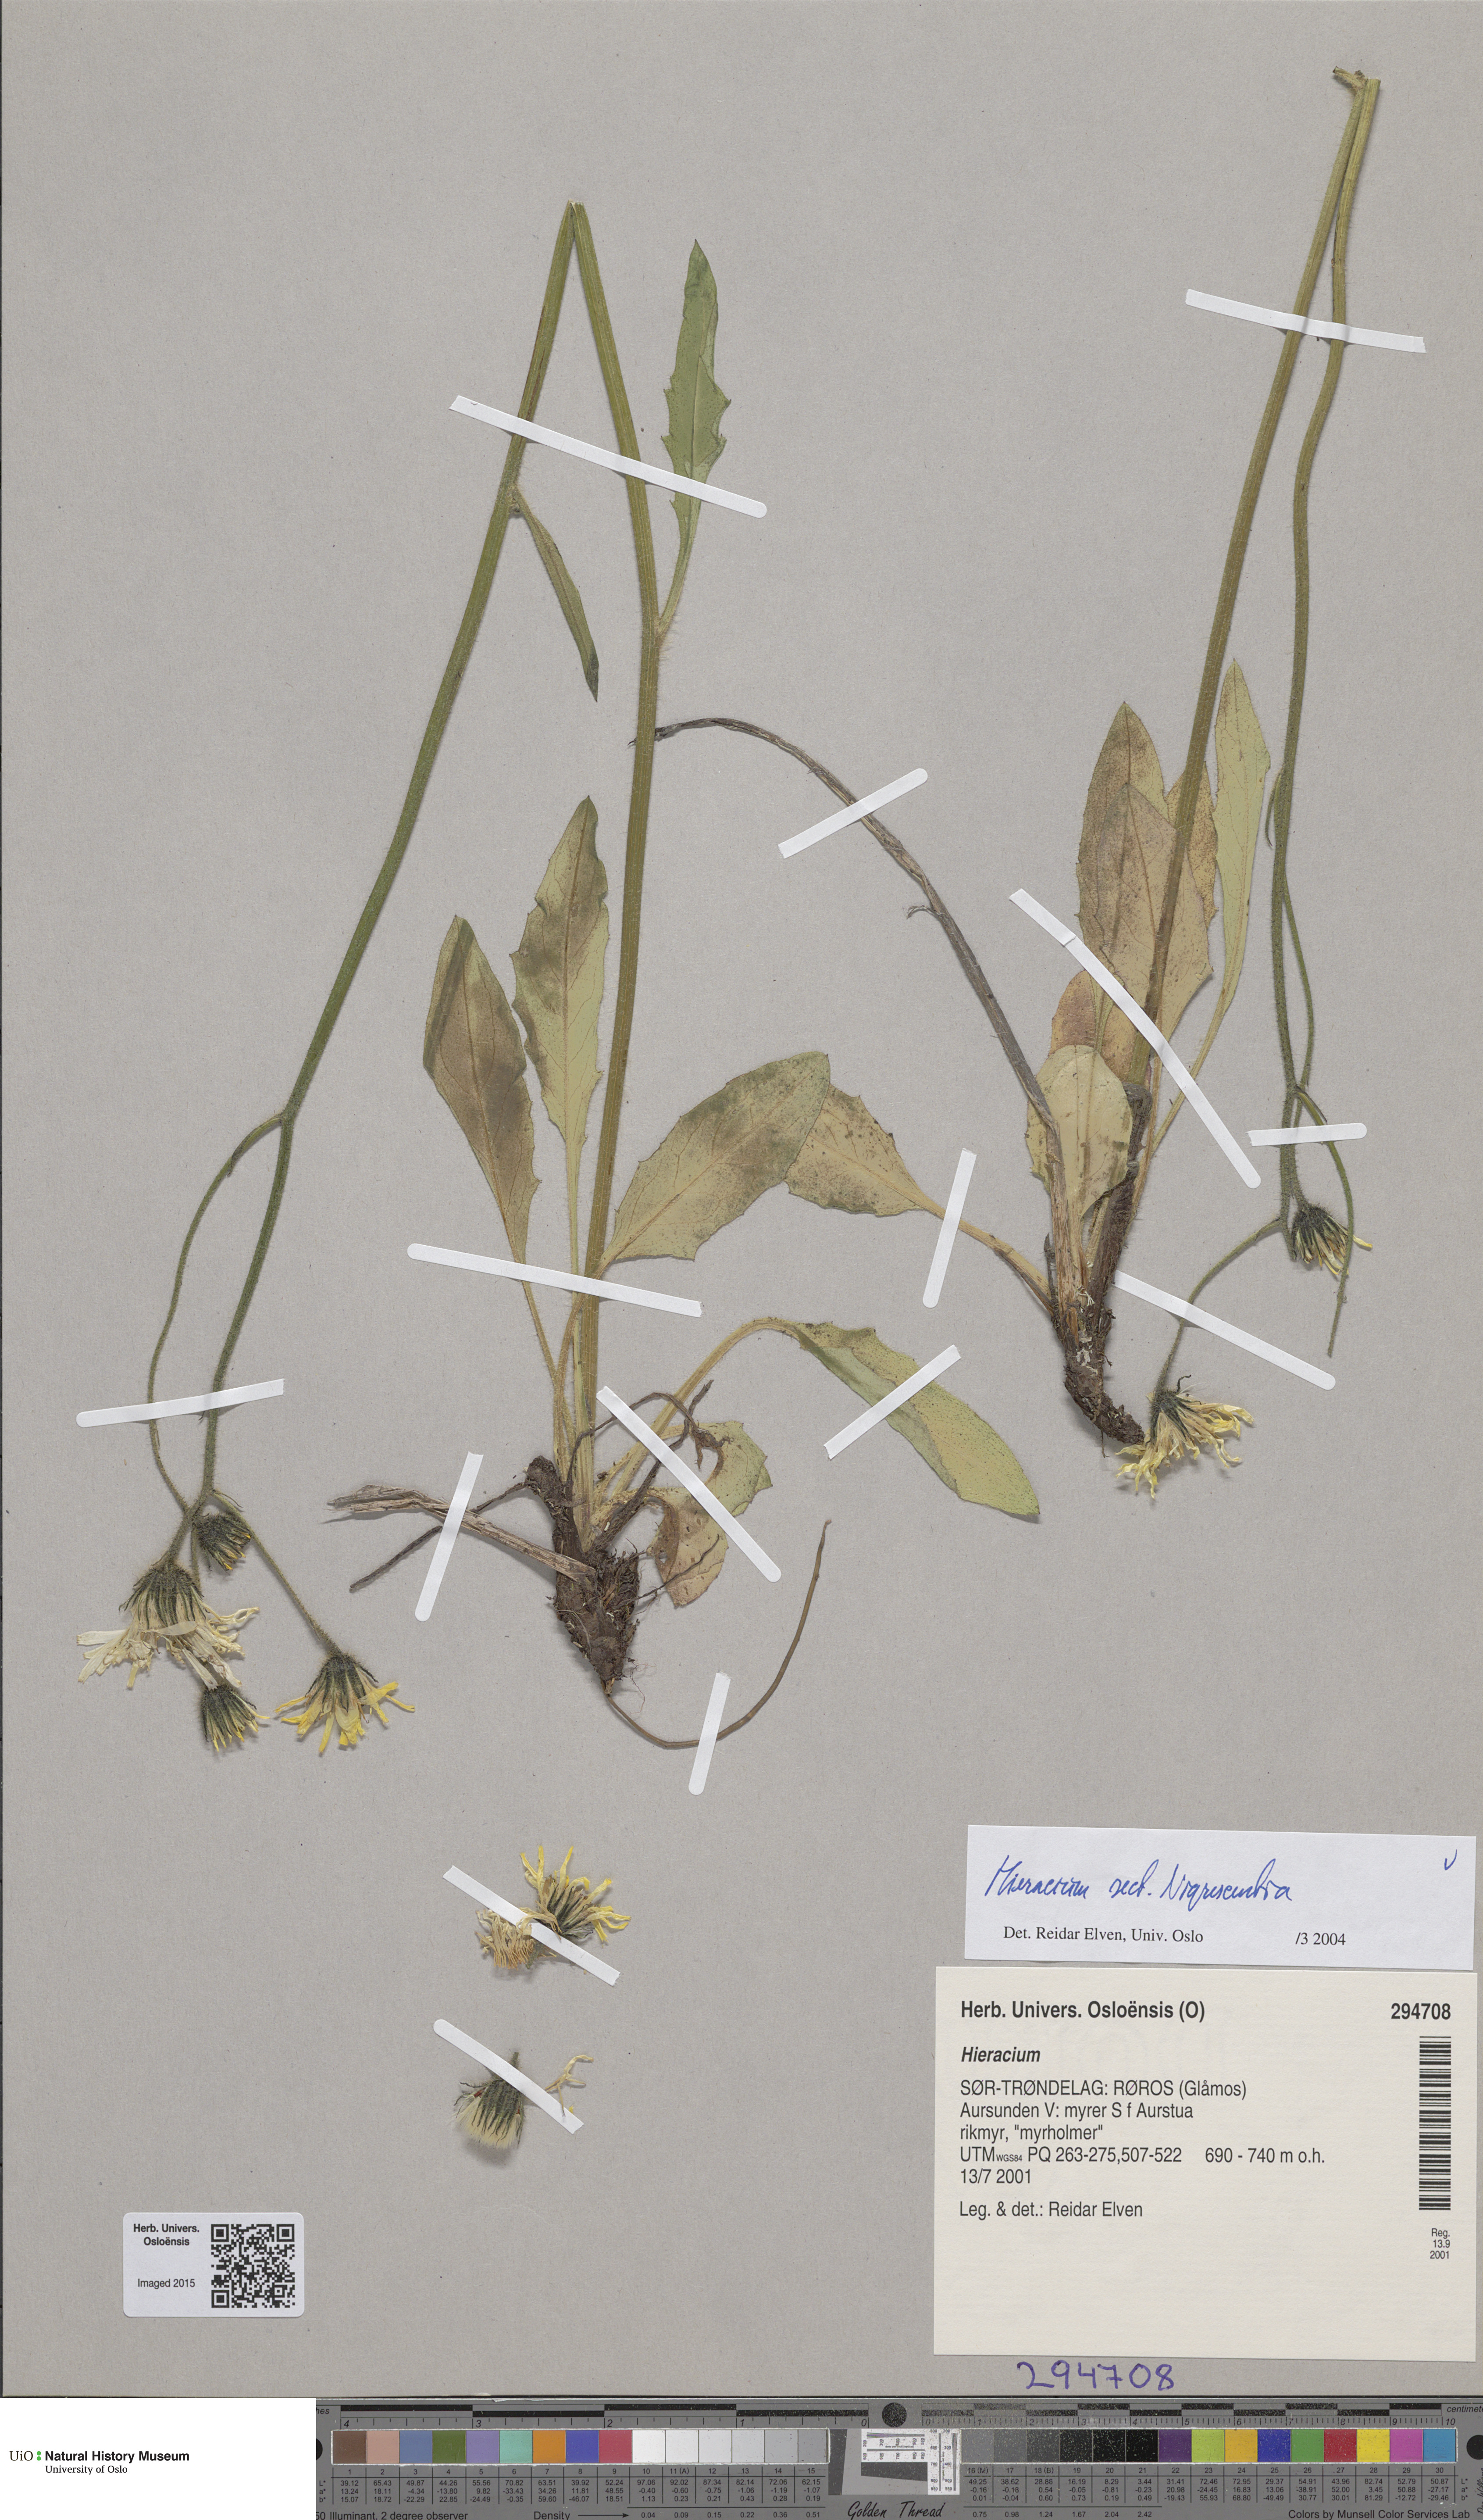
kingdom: Plantae
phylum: Tracheophyta
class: Magnoliopsida
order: Asterales
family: Asteraceae
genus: Hieracium
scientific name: Hieracium umbrosum
